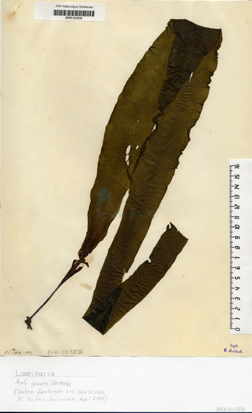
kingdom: Chromista
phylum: Ochrophyta
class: Phaeophyceae
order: Laminariales
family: Laminariaceae
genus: Laminaria
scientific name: Laminaria
